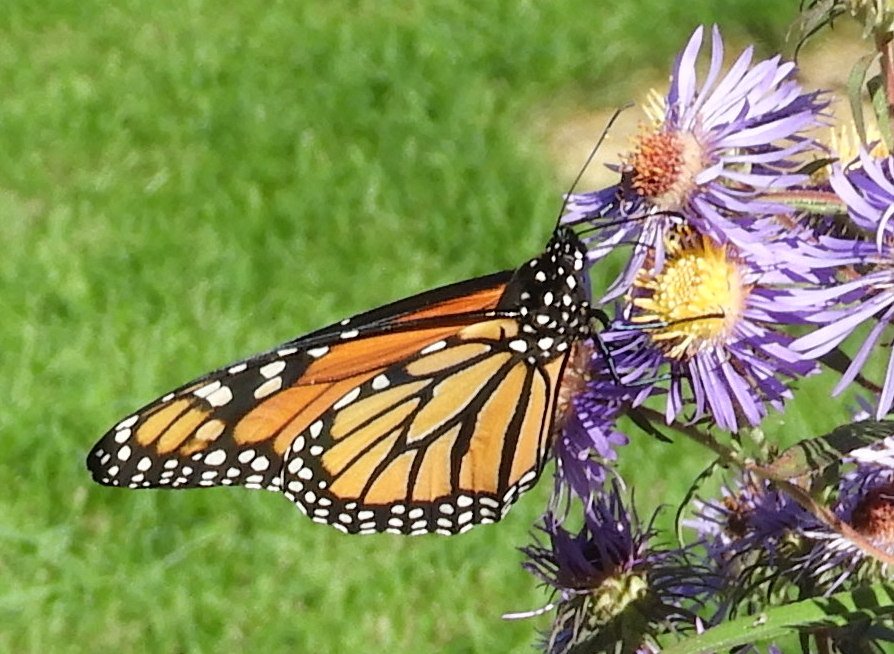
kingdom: Animalia
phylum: Arthropoda
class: Insecta
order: Lepidoptera
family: Nymphalidae
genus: Danaus
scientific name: Danaus plexippus
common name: Monarch
